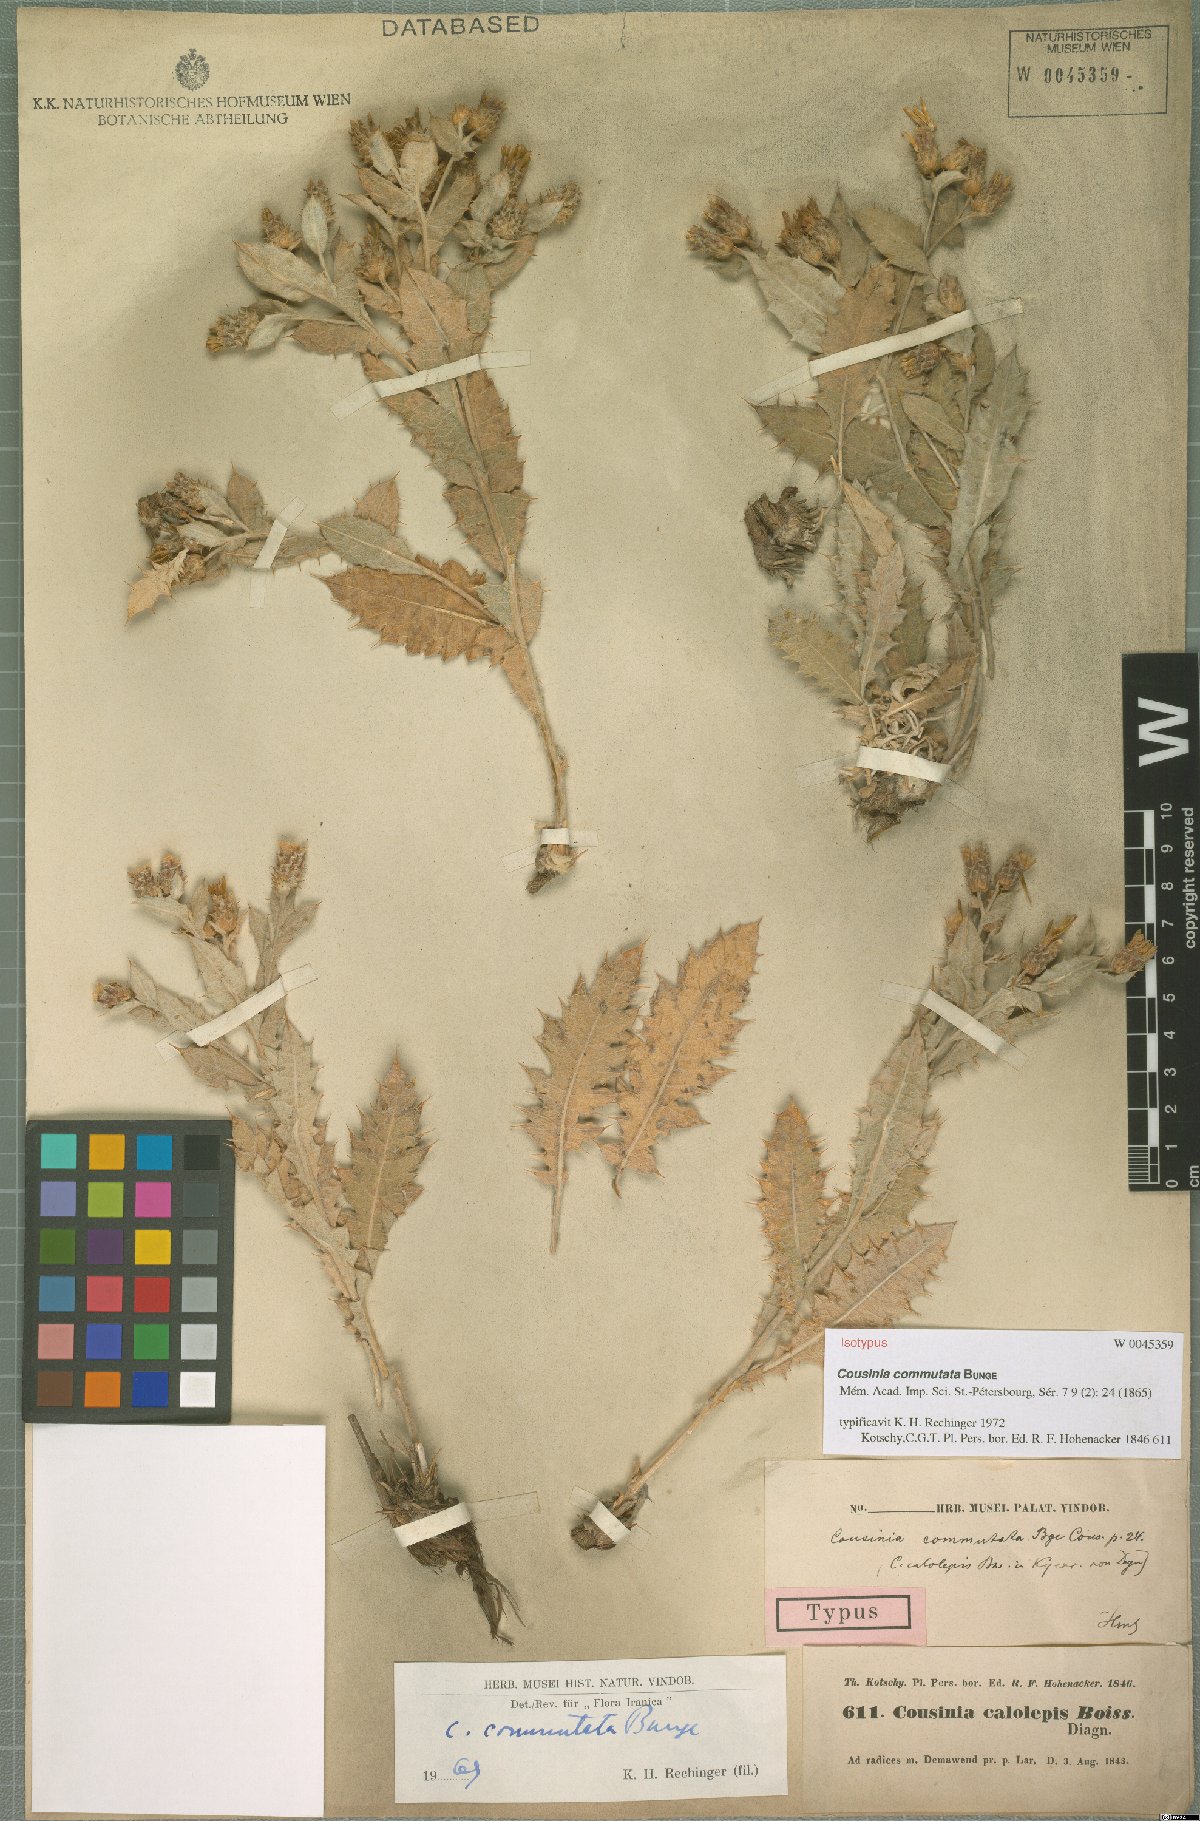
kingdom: Plantae
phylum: Tracheophyta
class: Magnoliopsida
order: Asterales
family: Asteraceae
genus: Cousinia
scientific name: Cousinia commutata
